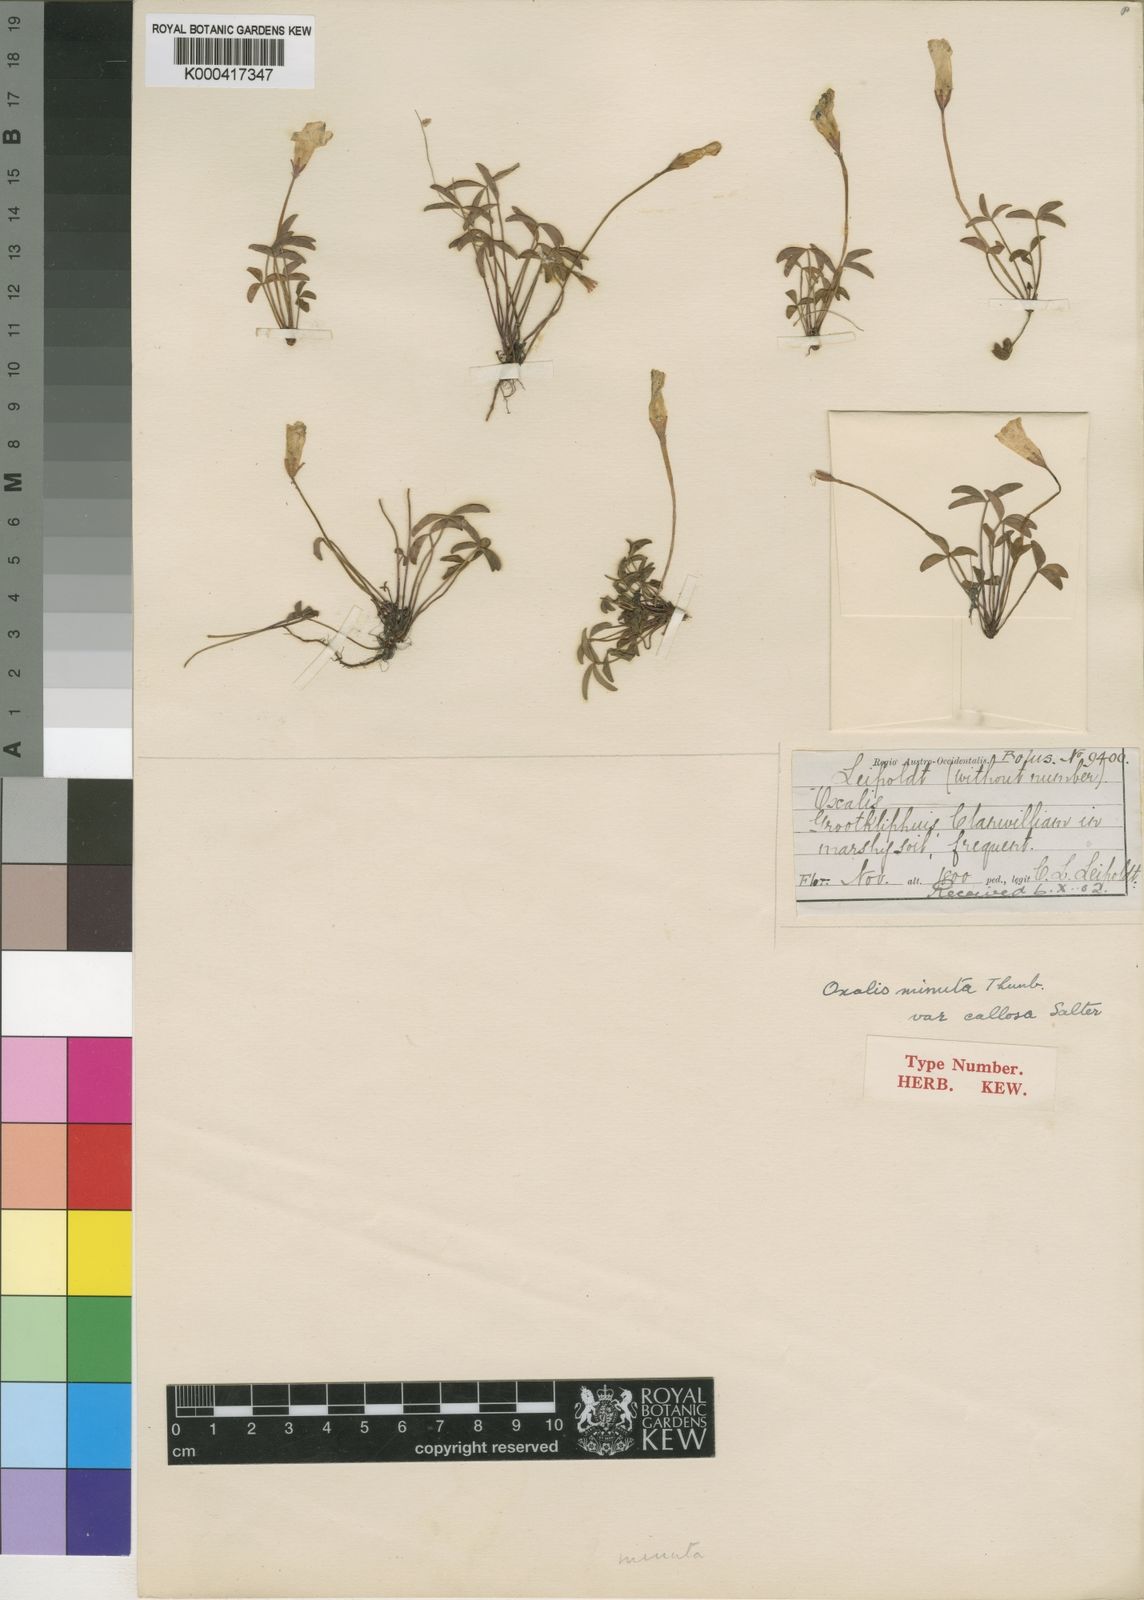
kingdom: Plantae
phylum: Tracheophyta
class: Magnoliopsida
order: Oxalidales
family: Oxalidaceae
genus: Oxalis
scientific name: Oxalis minuta
